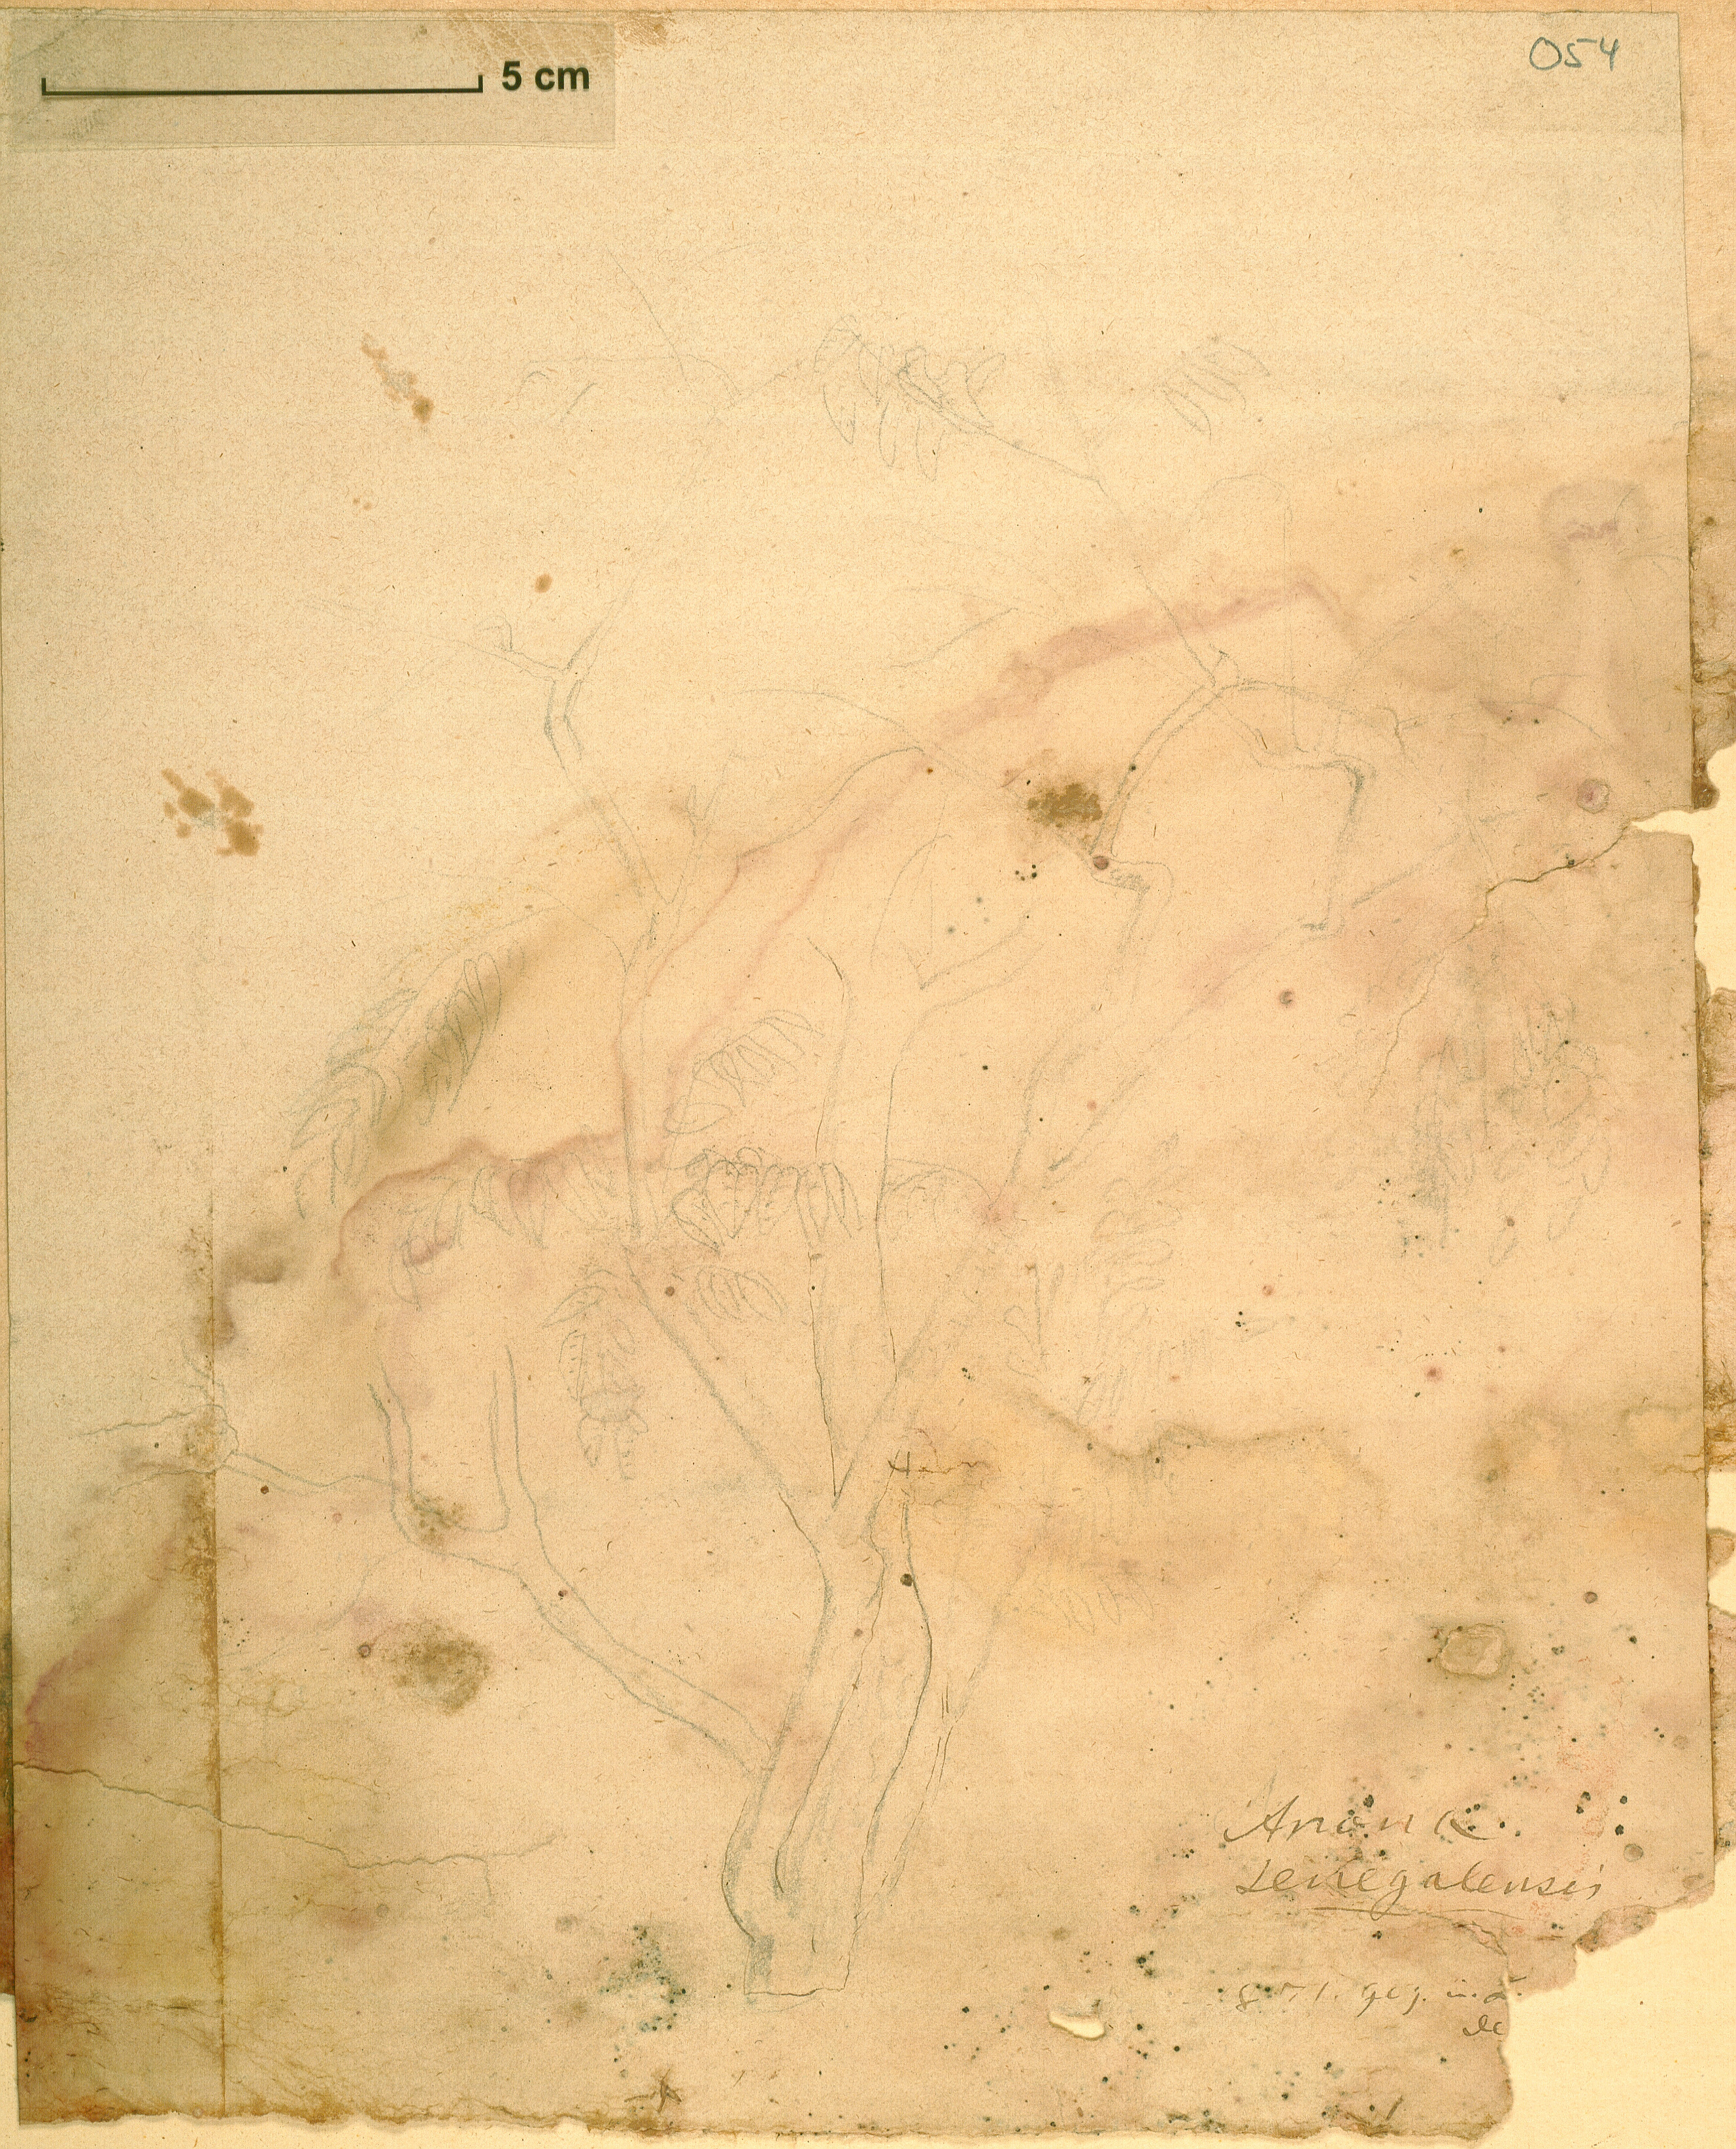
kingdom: Plantae
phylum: Tracheophyta
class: Magnoliopsida
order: Magnoliales
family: Annonaceae
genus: Annona
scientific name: Annona senegalensis
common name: Wild custard-apple
